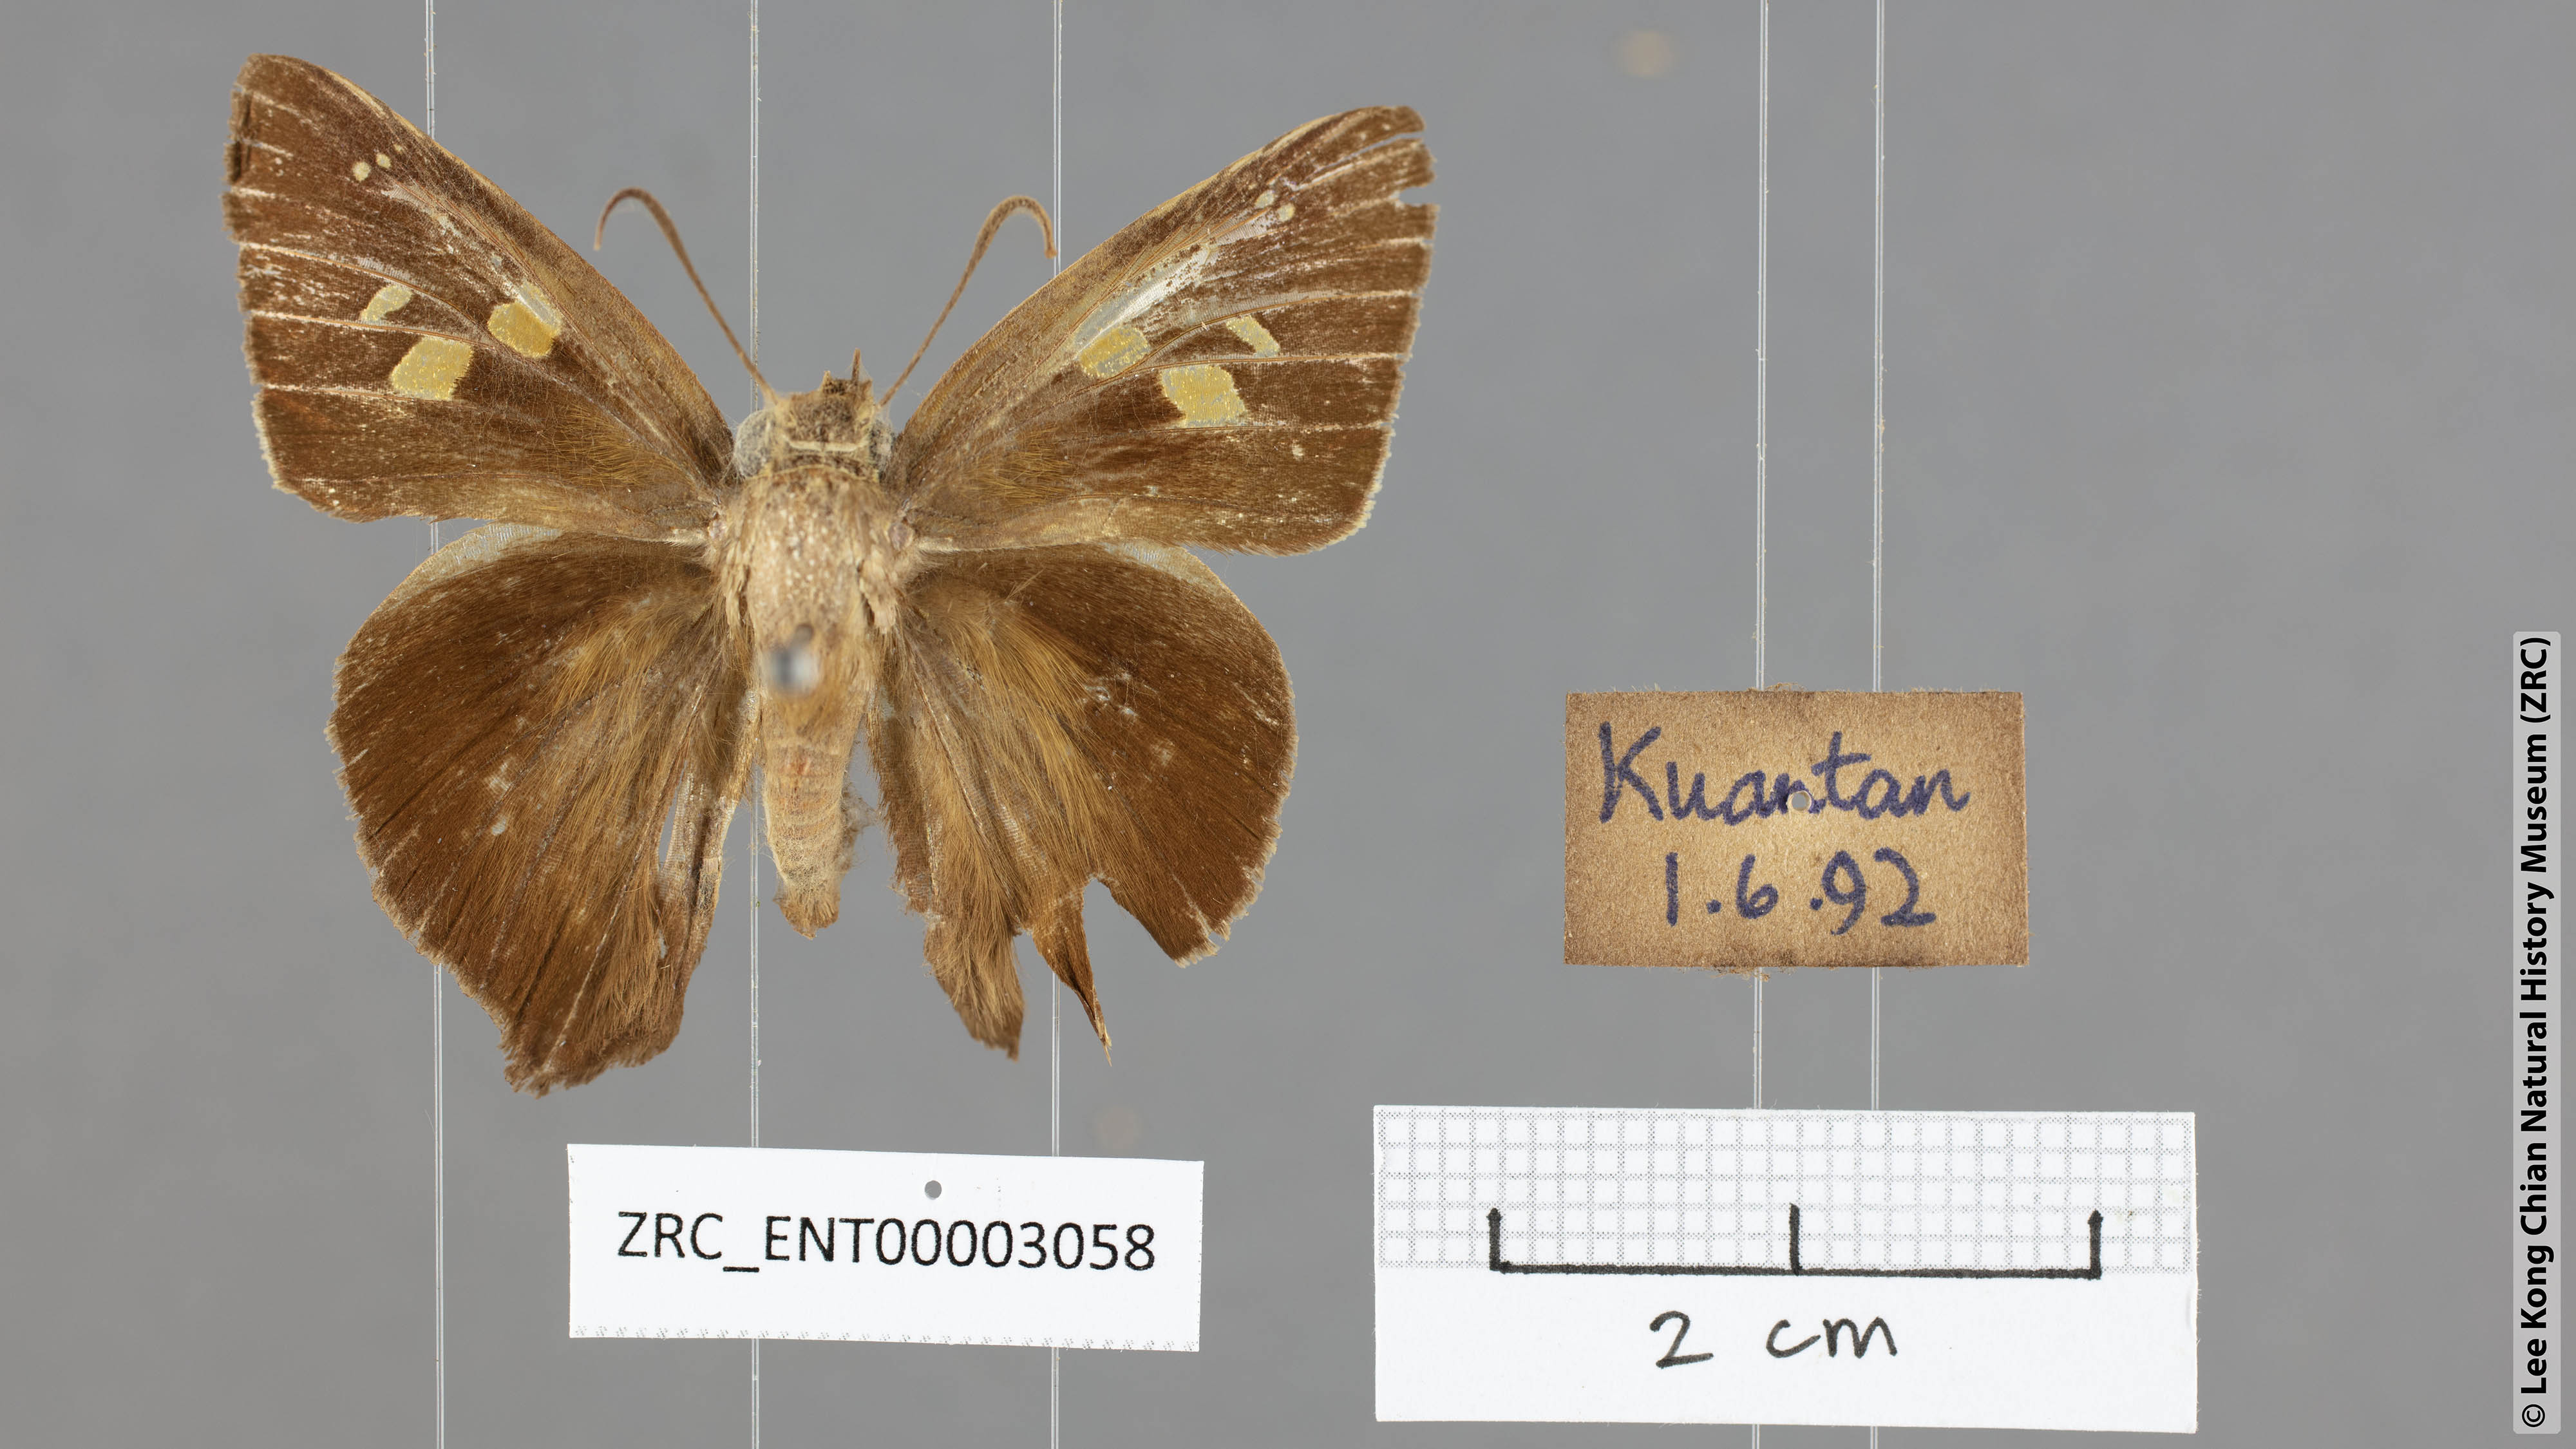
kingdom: Animalia
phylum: Arthropoda
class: Insecta
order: Lepidoptera
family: Hesperiidae
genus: Hasora
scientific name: Hasora badra
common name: Common awl
